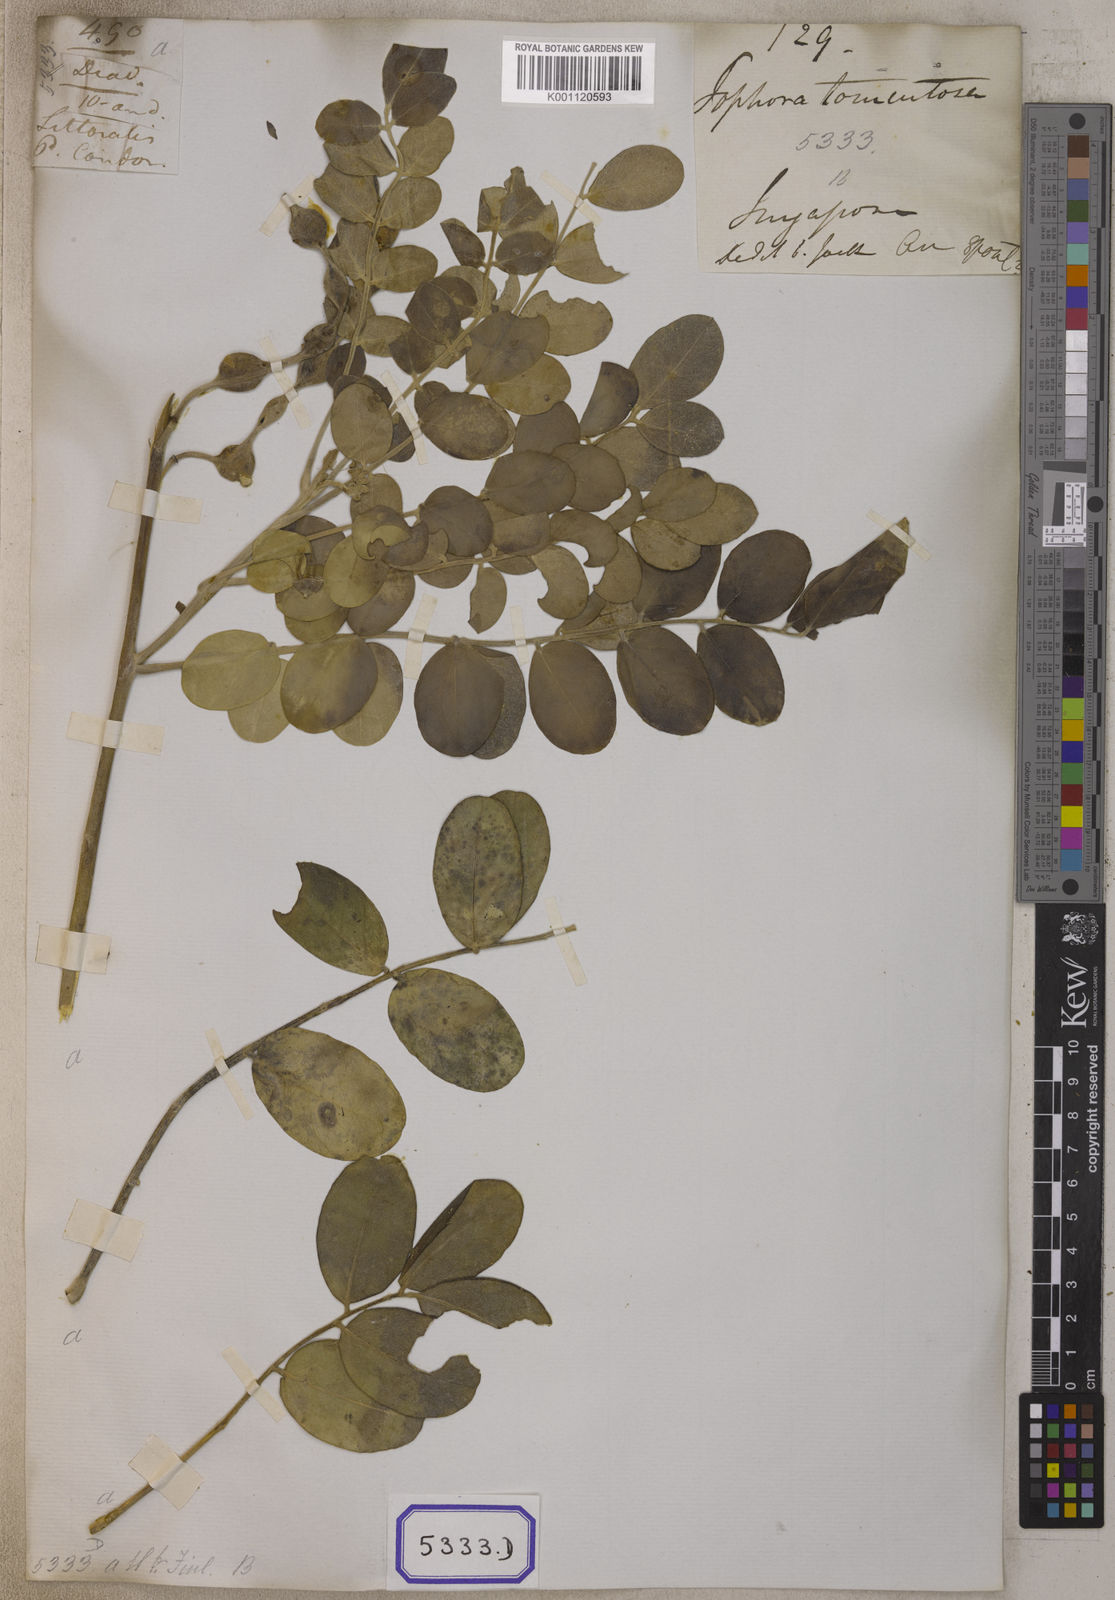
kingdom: Plantae
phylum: Tracheophyta
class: Magnoliopsida
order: Fabales
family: Fabaceae
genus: Sophora
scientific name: Sophora tomentosa
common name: Yellow necklacepod
